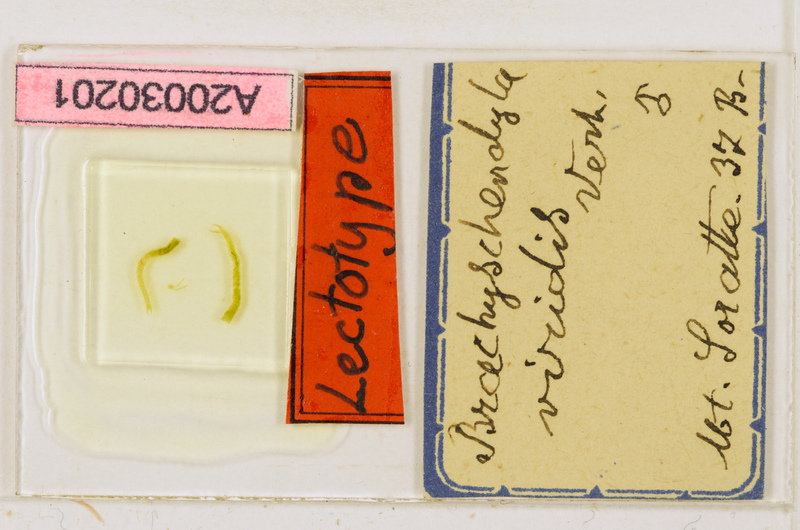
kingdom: Animalia
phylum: Arthropoda
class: Chilopoda
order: Geophilomorpha
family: Schendylidae
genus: Schendyla
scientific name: Schendyla
